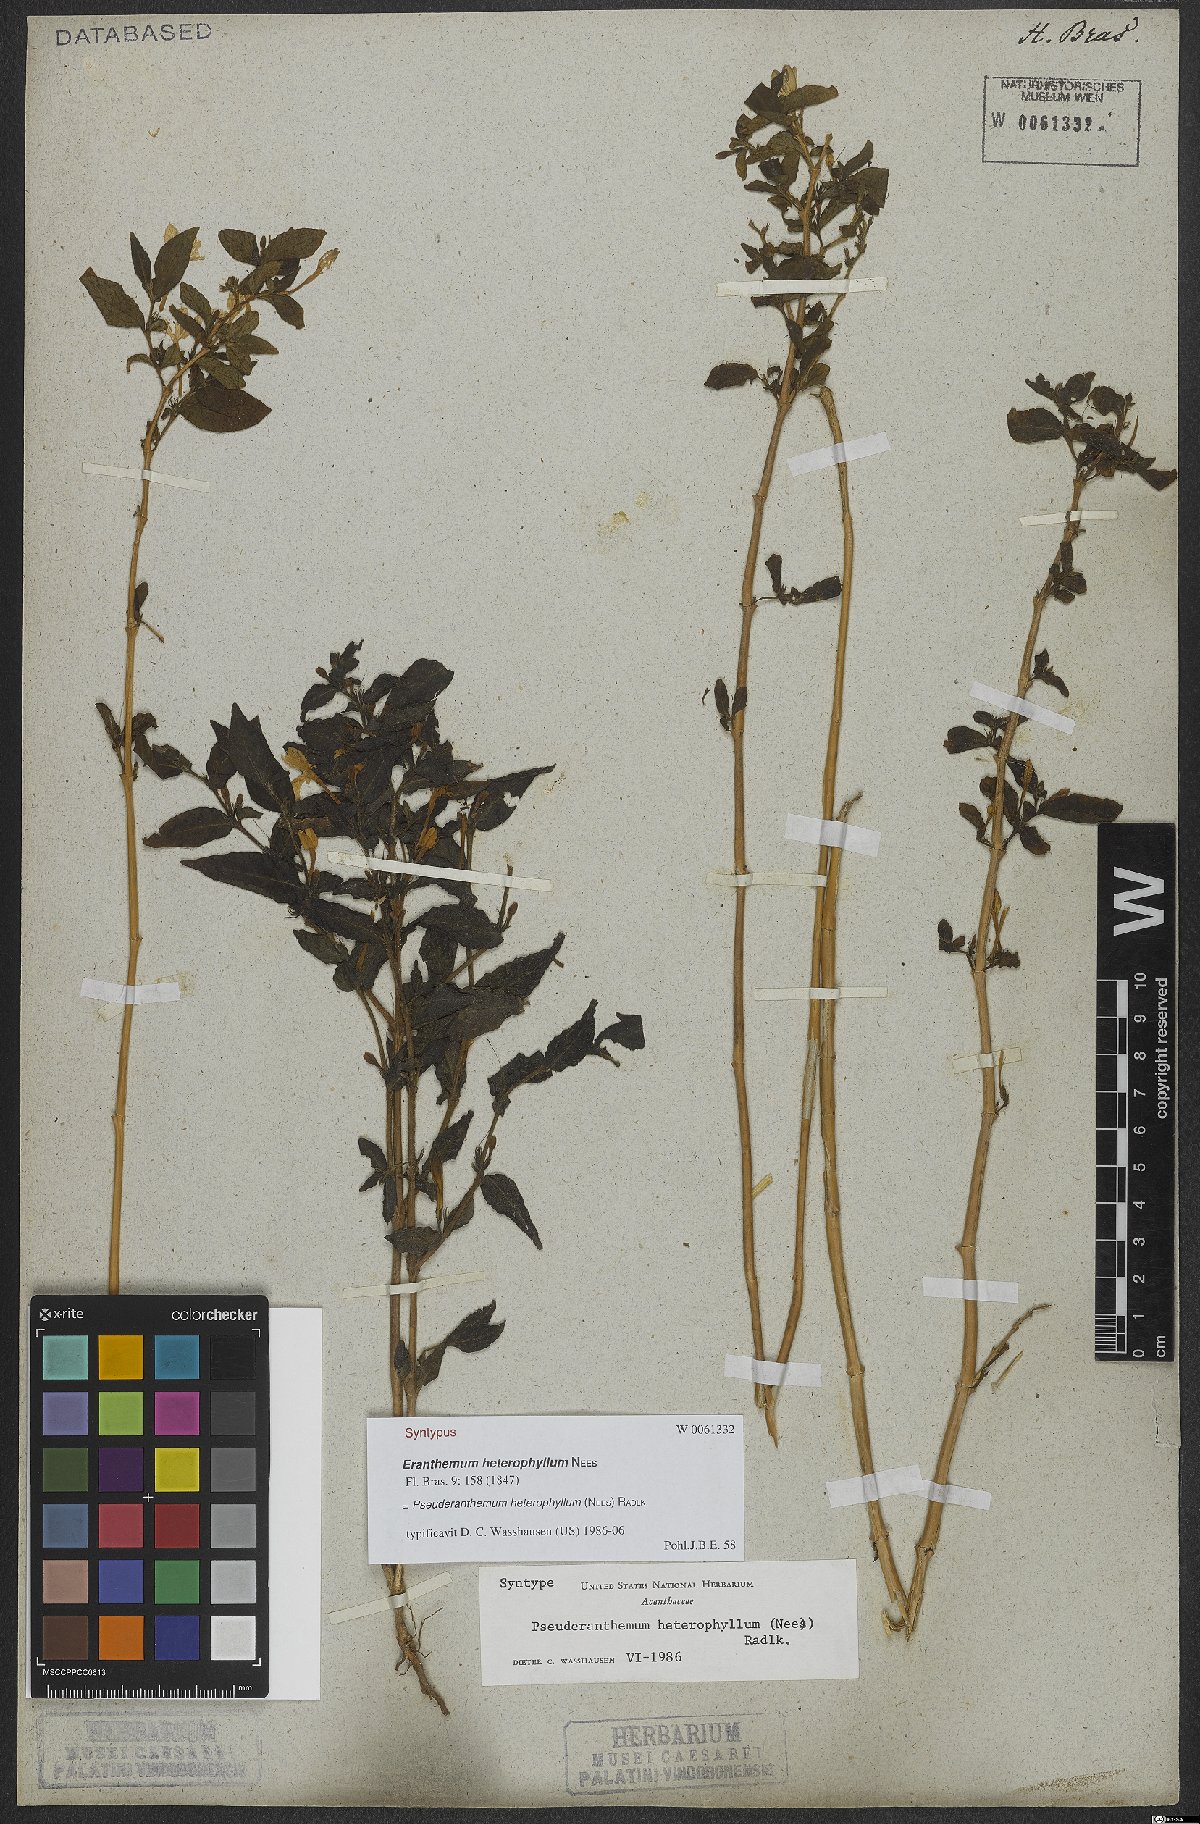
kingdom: Plantae
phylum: Tracheophyta
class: Magnoliopsida
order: Lamiales
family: Acanthaceae
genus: Pseuderanthemum
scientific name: Pseuderanthemum heterophyllum
